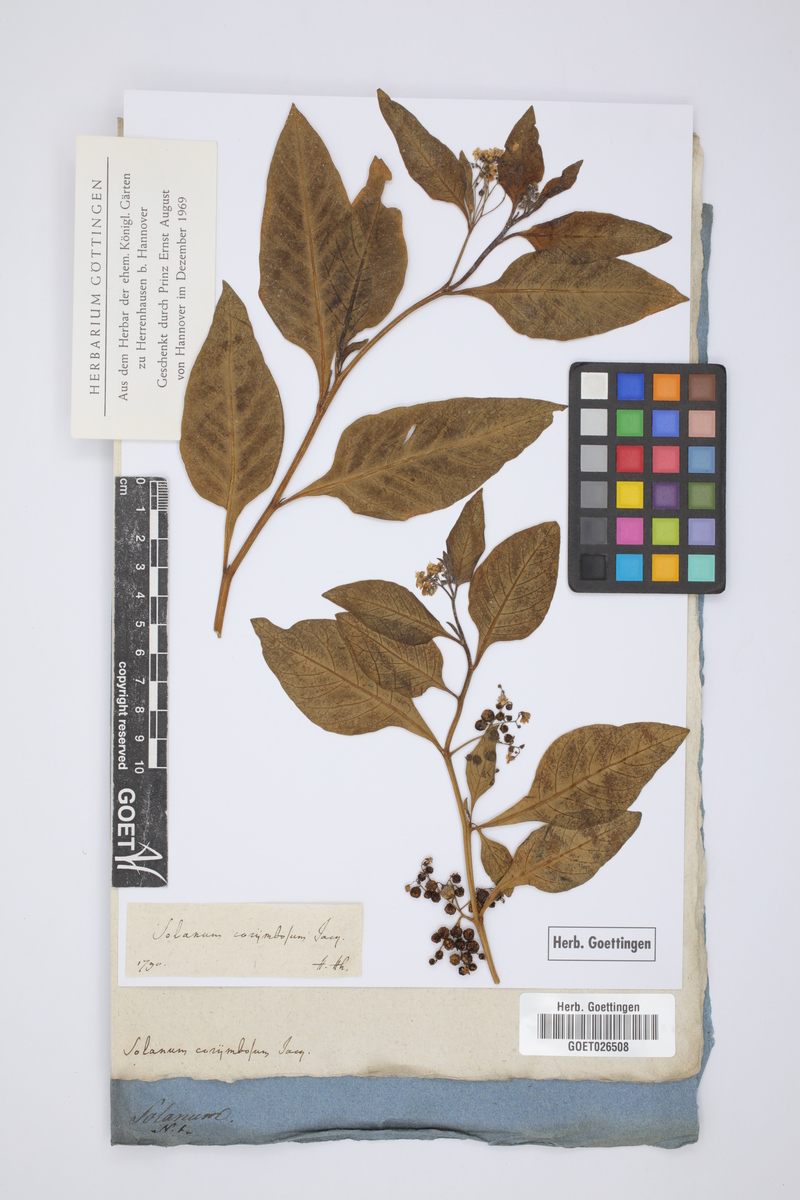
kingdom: Plantae
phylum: Tracheophyta
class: Magnoliopsida
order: Solanales
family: Solanaceae
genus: Solanum
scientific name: Solanum corymbosum
